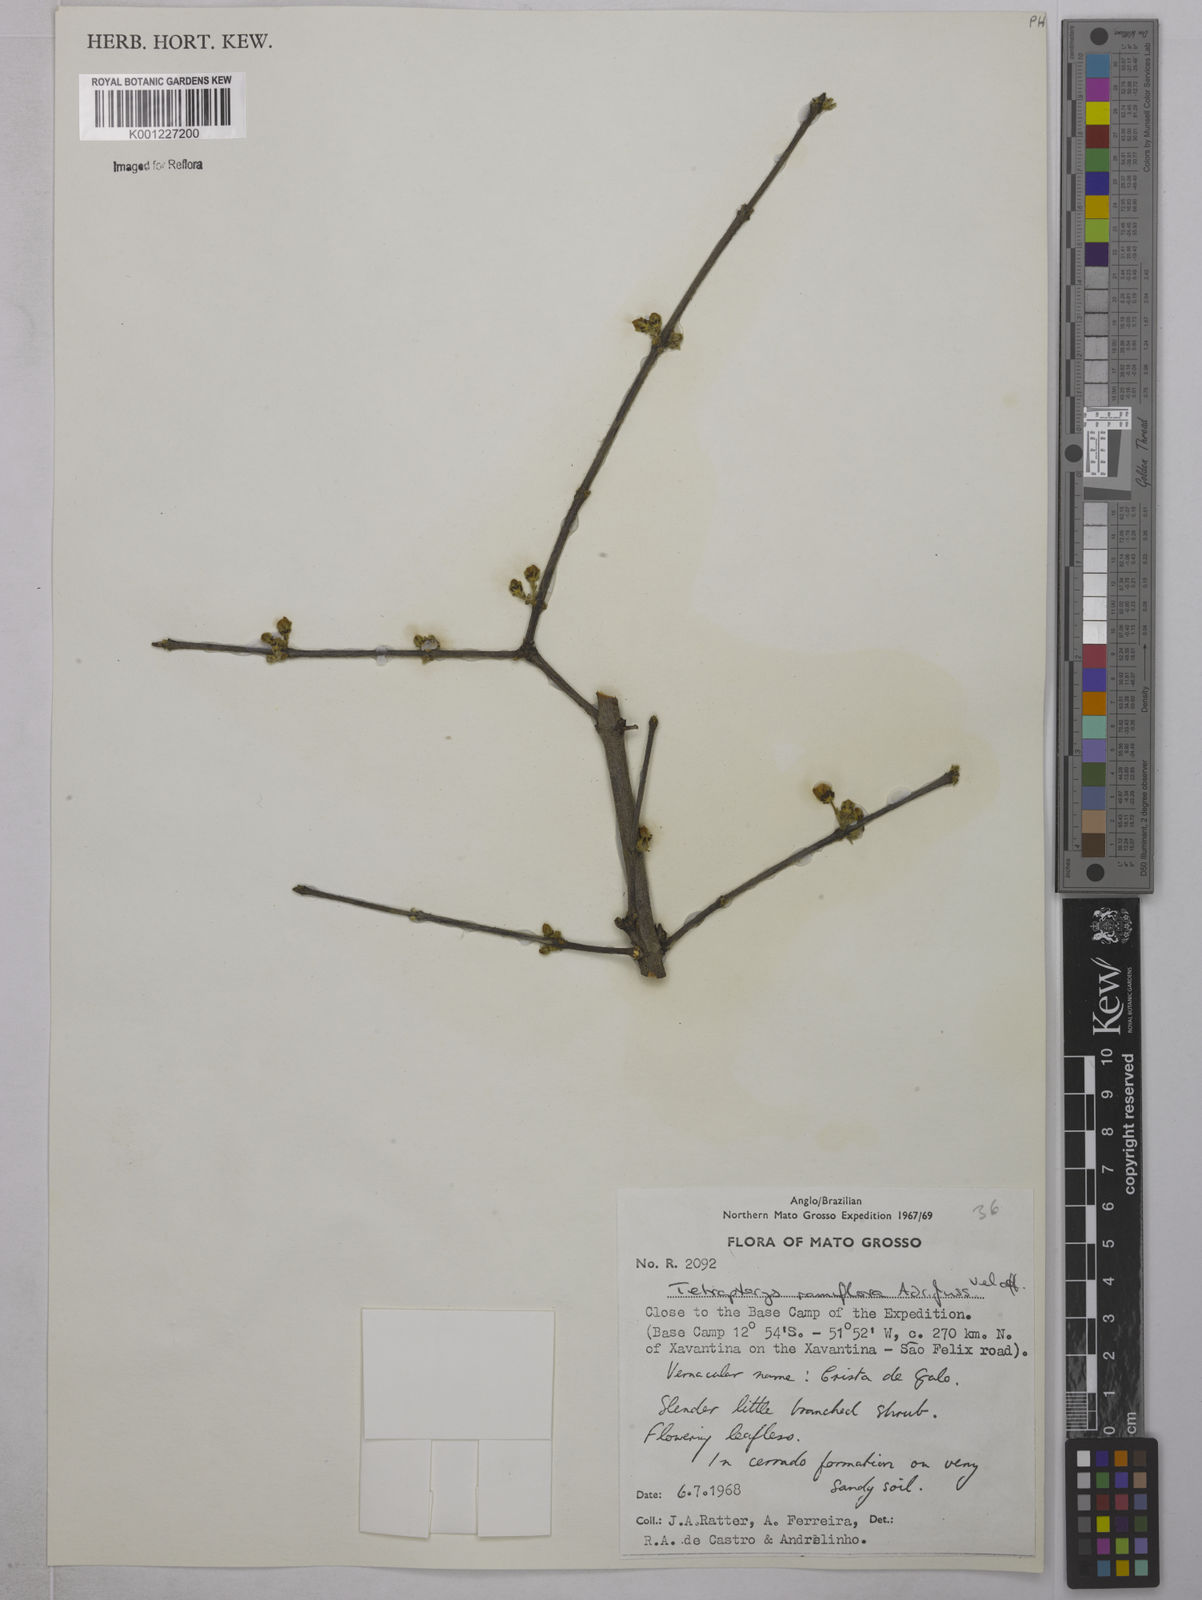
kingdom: Plantae
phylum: Tracheophyta
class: Magnoliopsida
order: Malpighiales
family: Malpighiaceae
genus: Glicophyllum
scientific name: Glicophyllum ramiflorum
